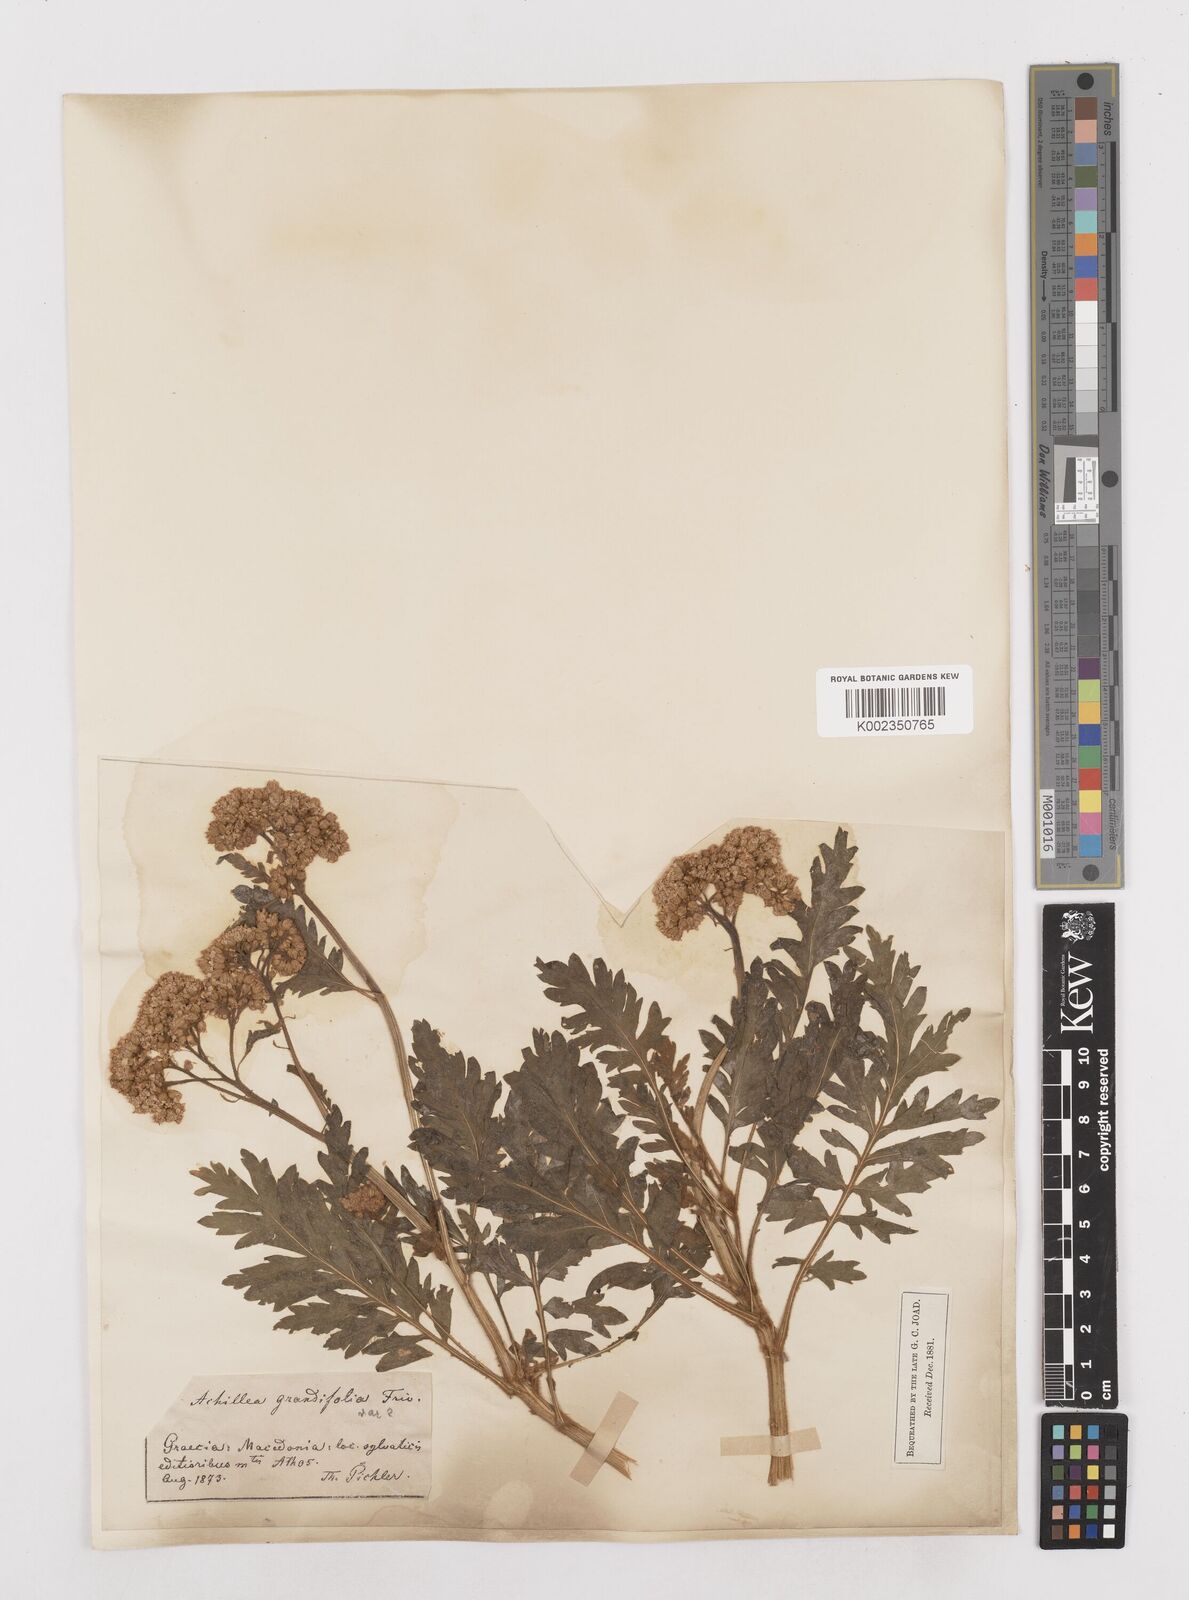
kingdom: Plantae
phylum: Tracheophyta
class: Magnoliopsida
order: Asterales
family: Asteraceae
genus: Achillea
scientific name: Achillea grandifolia
